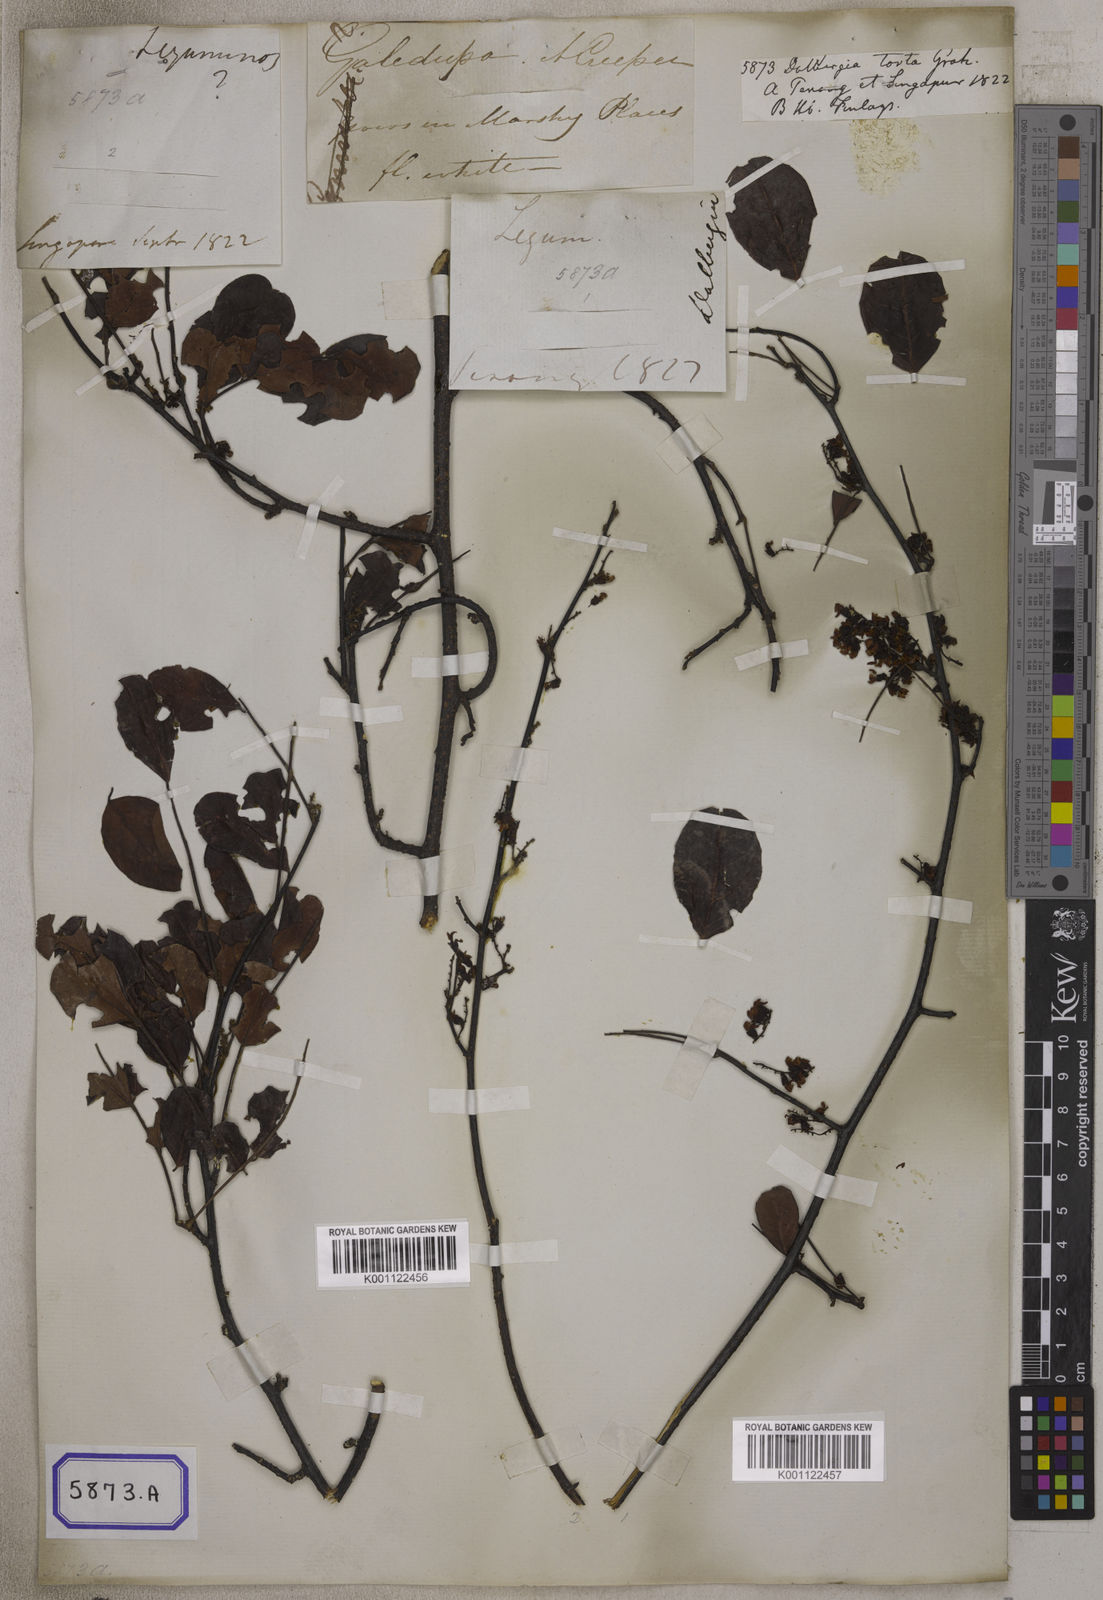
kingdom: Plantae
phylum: Tracheophyta
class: Magnoliopsida
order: Fabales
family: Fabaceae
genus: Dalbergia
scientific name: Dalbergia candenatensis
